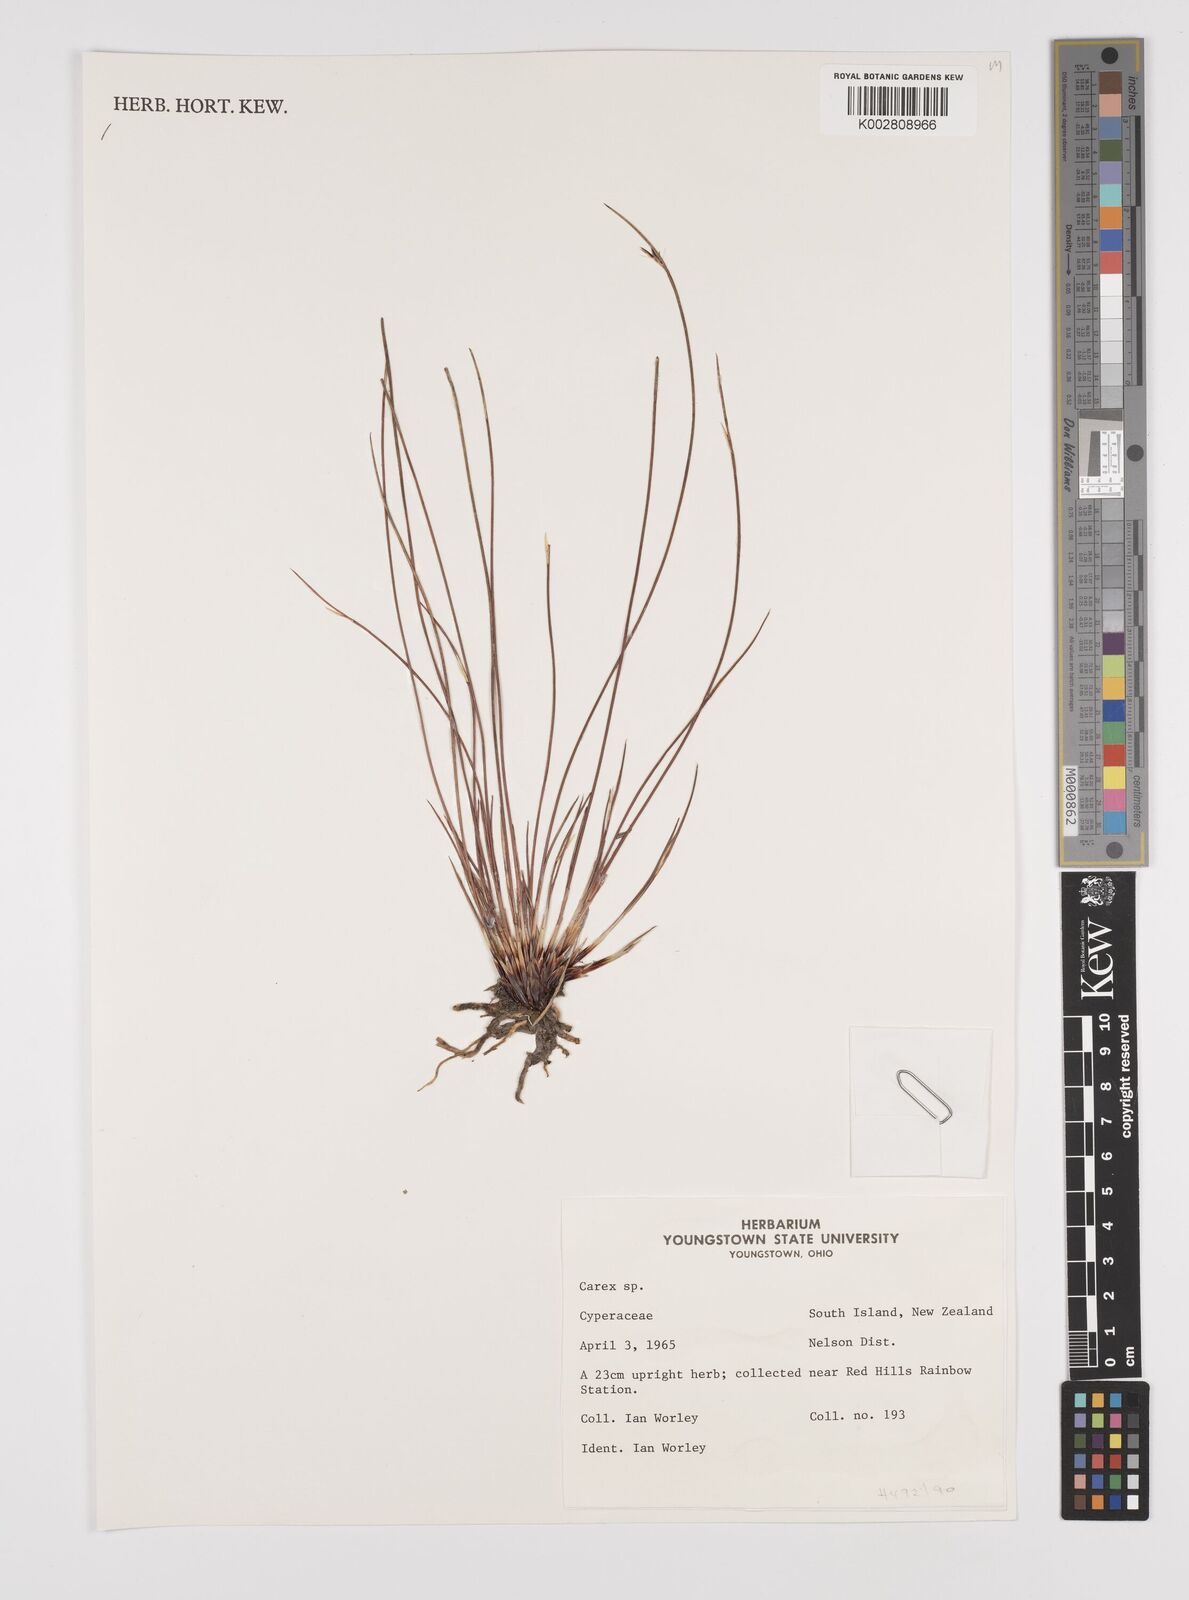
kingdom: Plantae
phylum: Tracheophyta
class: Liliopsida
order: Poales
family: Cyperaceae
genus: Carex
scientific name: Carex
